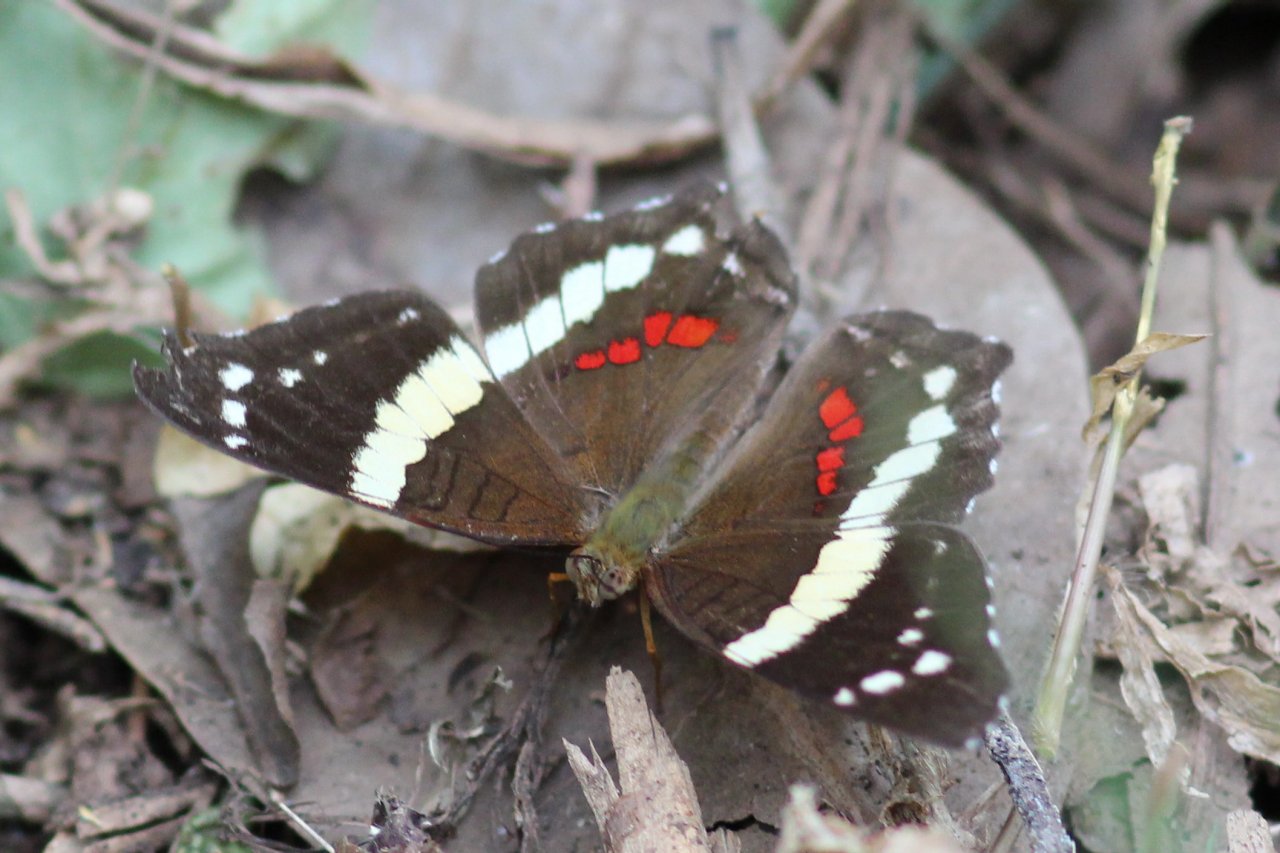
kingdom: Animalia
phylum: Arthropoda
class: Insecta
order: Lepidoptera
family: Nymphalidae
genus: Anartia
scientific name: Anartia fatima
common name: Banded Peacock
